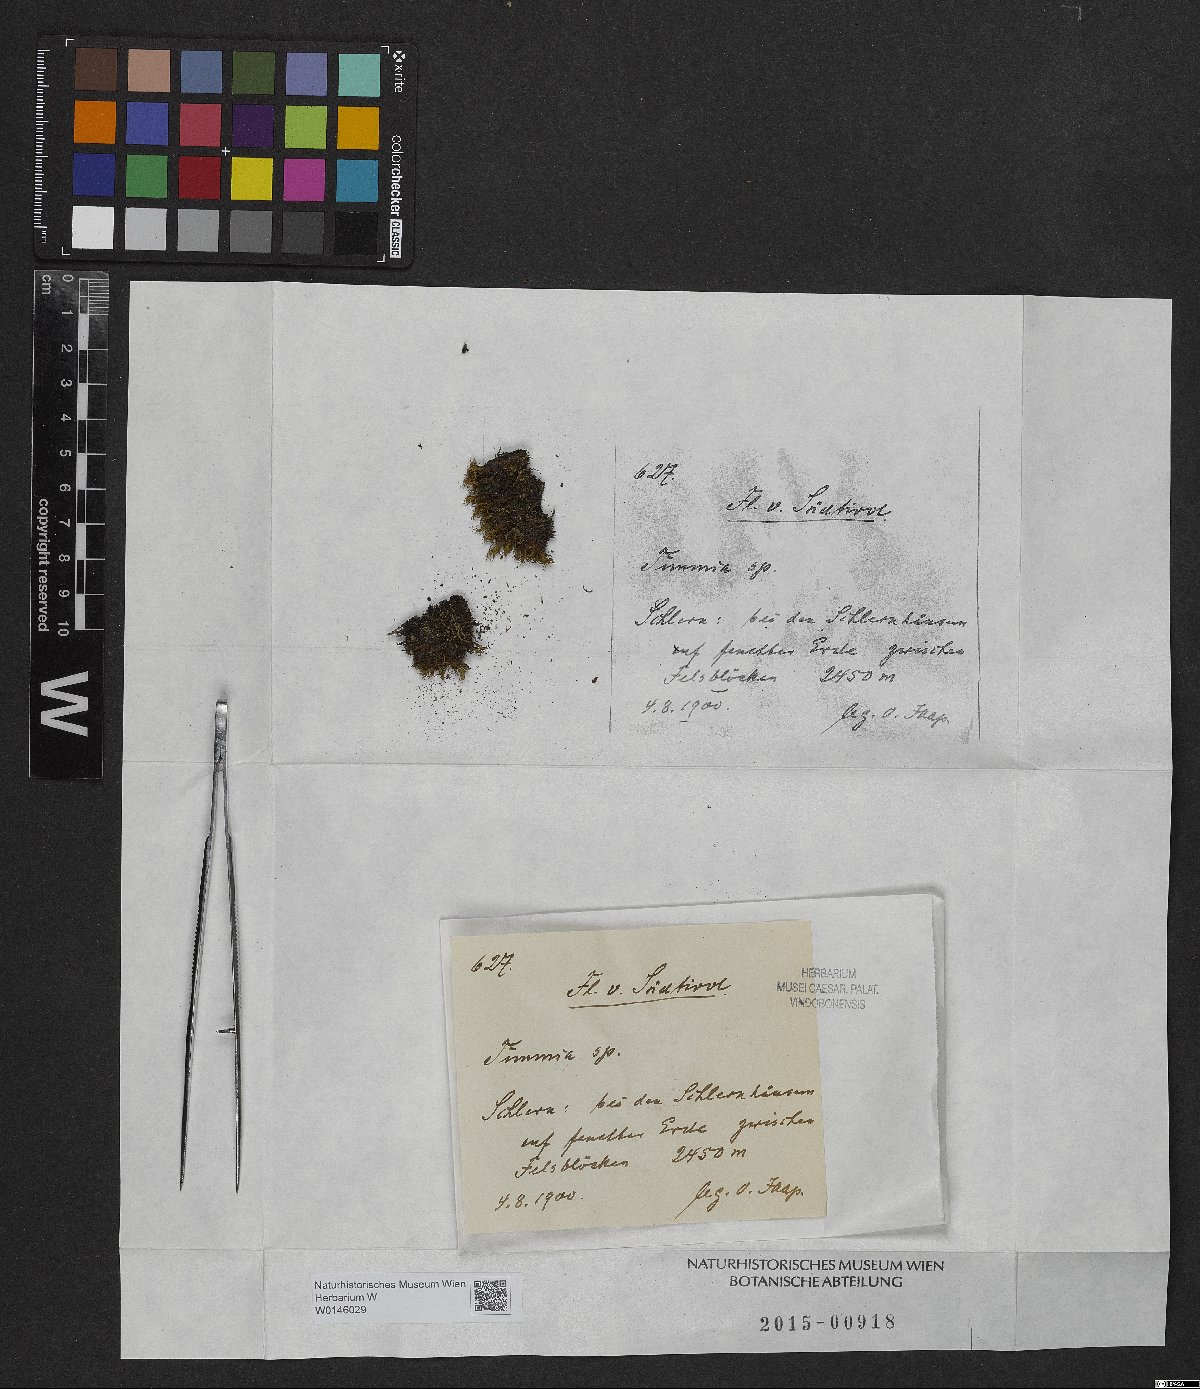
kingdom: Plantae
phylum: Bryophyta
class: Bryopsida
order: Timmiales
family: Timmiaceae
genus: Timmia
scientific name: Timmia
